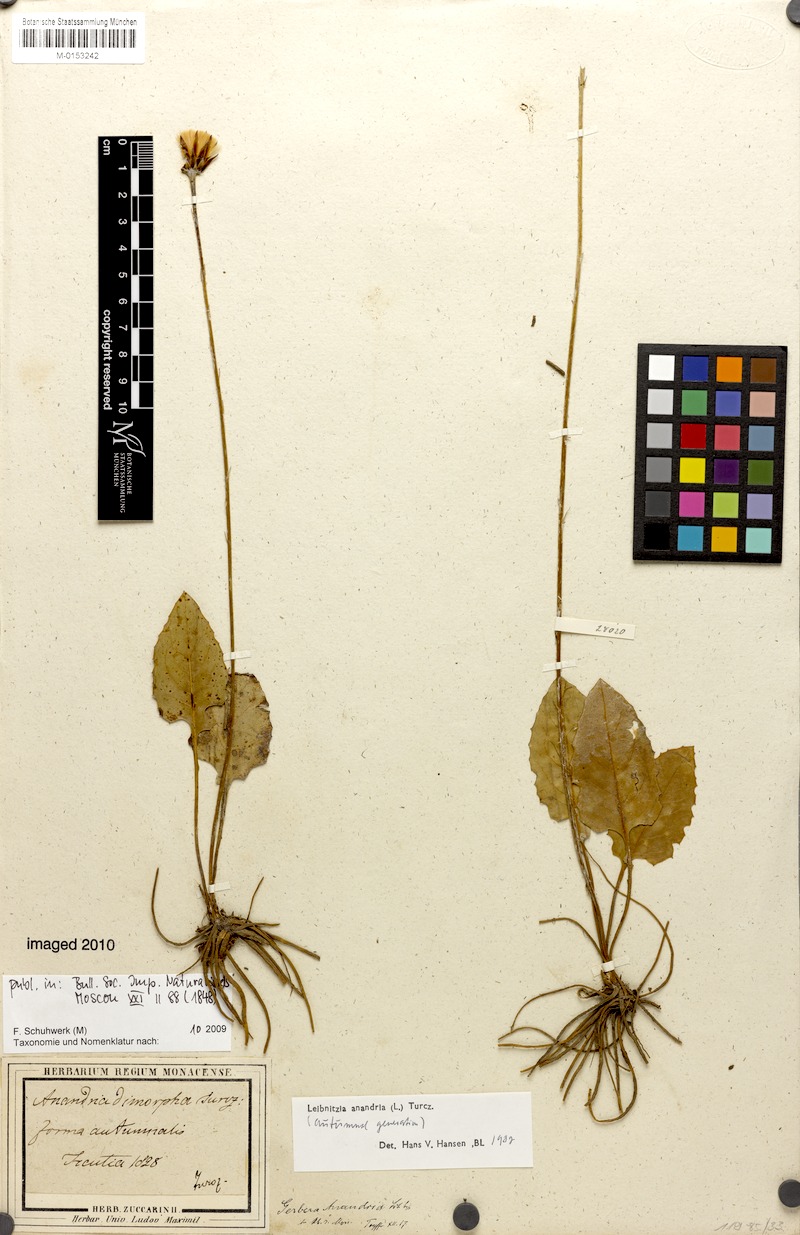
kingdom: Plantae
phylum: Tracheophyta
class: Magnoliopsida
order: Asterales
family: Asteraceae
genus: Leibnitzia
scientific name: Leibnitzia anandria
